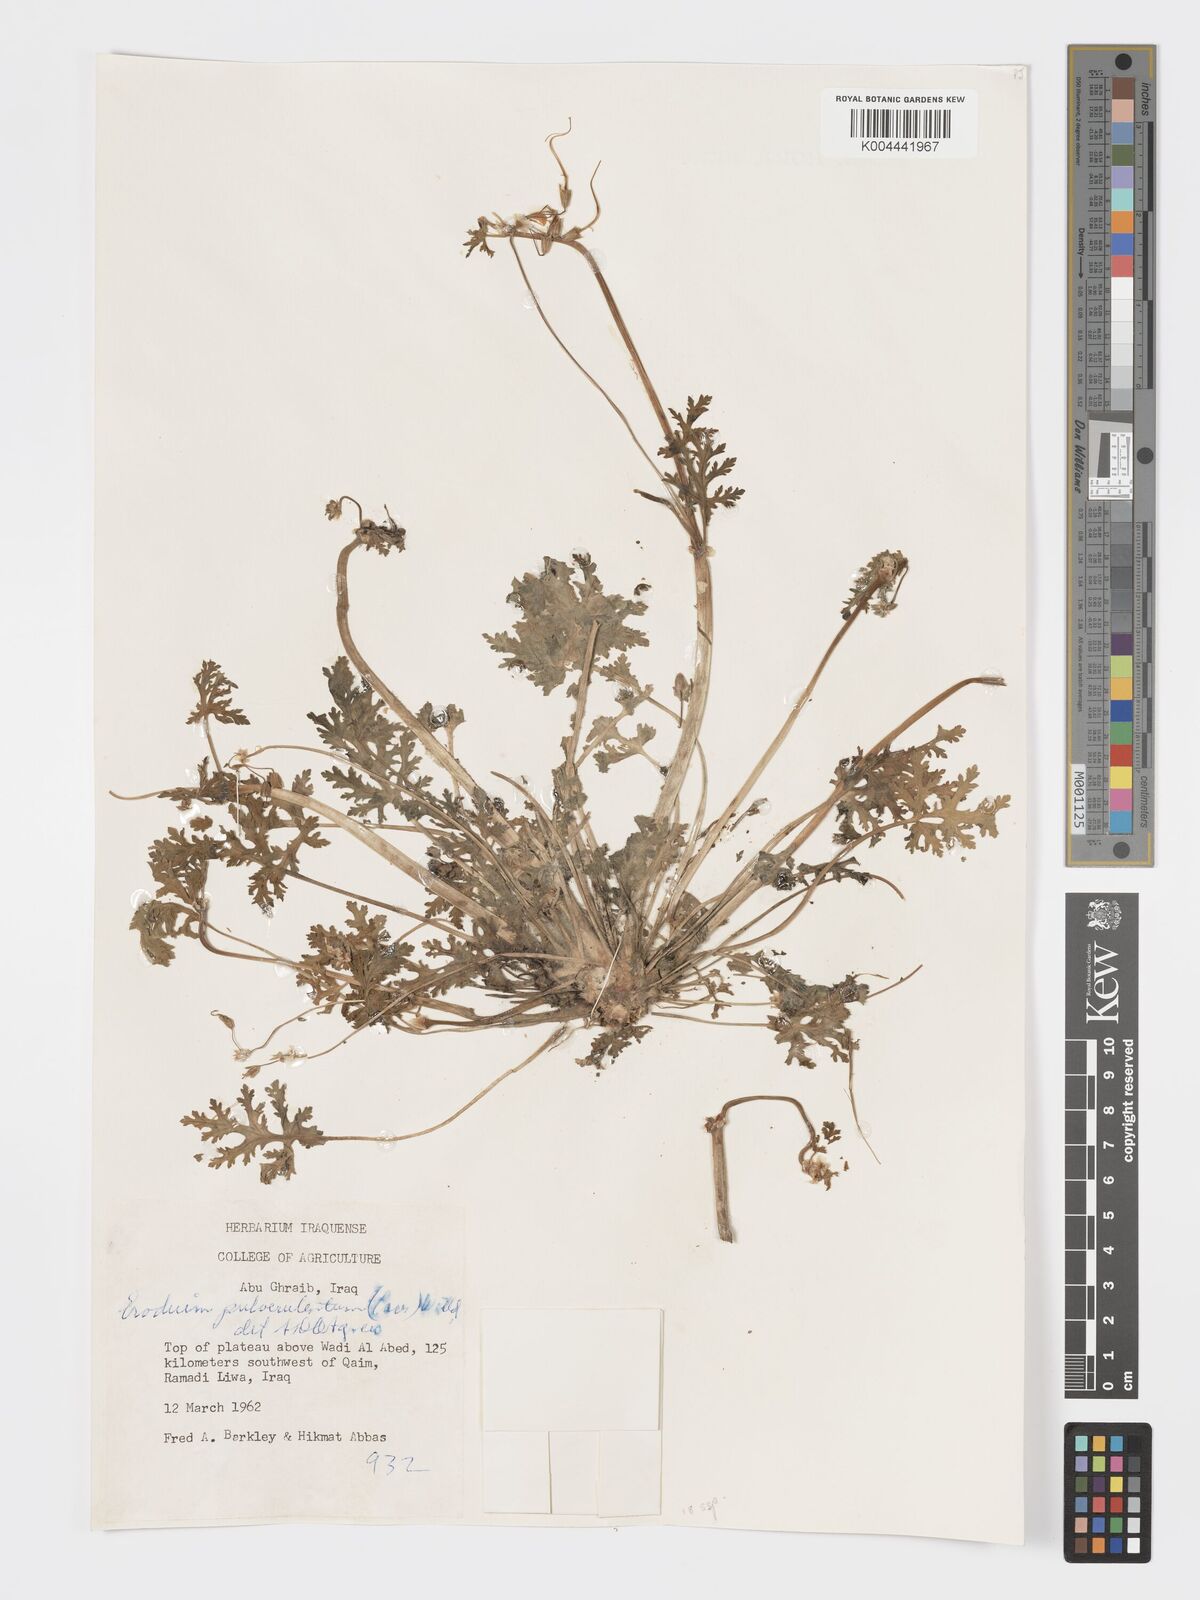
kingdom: Plantae
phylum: Tracheophyta
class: Magnoliopsida
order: Geraniales
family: Geraniaceae
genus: Erodium
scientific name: Erodium laciniatum
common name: Cutleaf stork's bill
